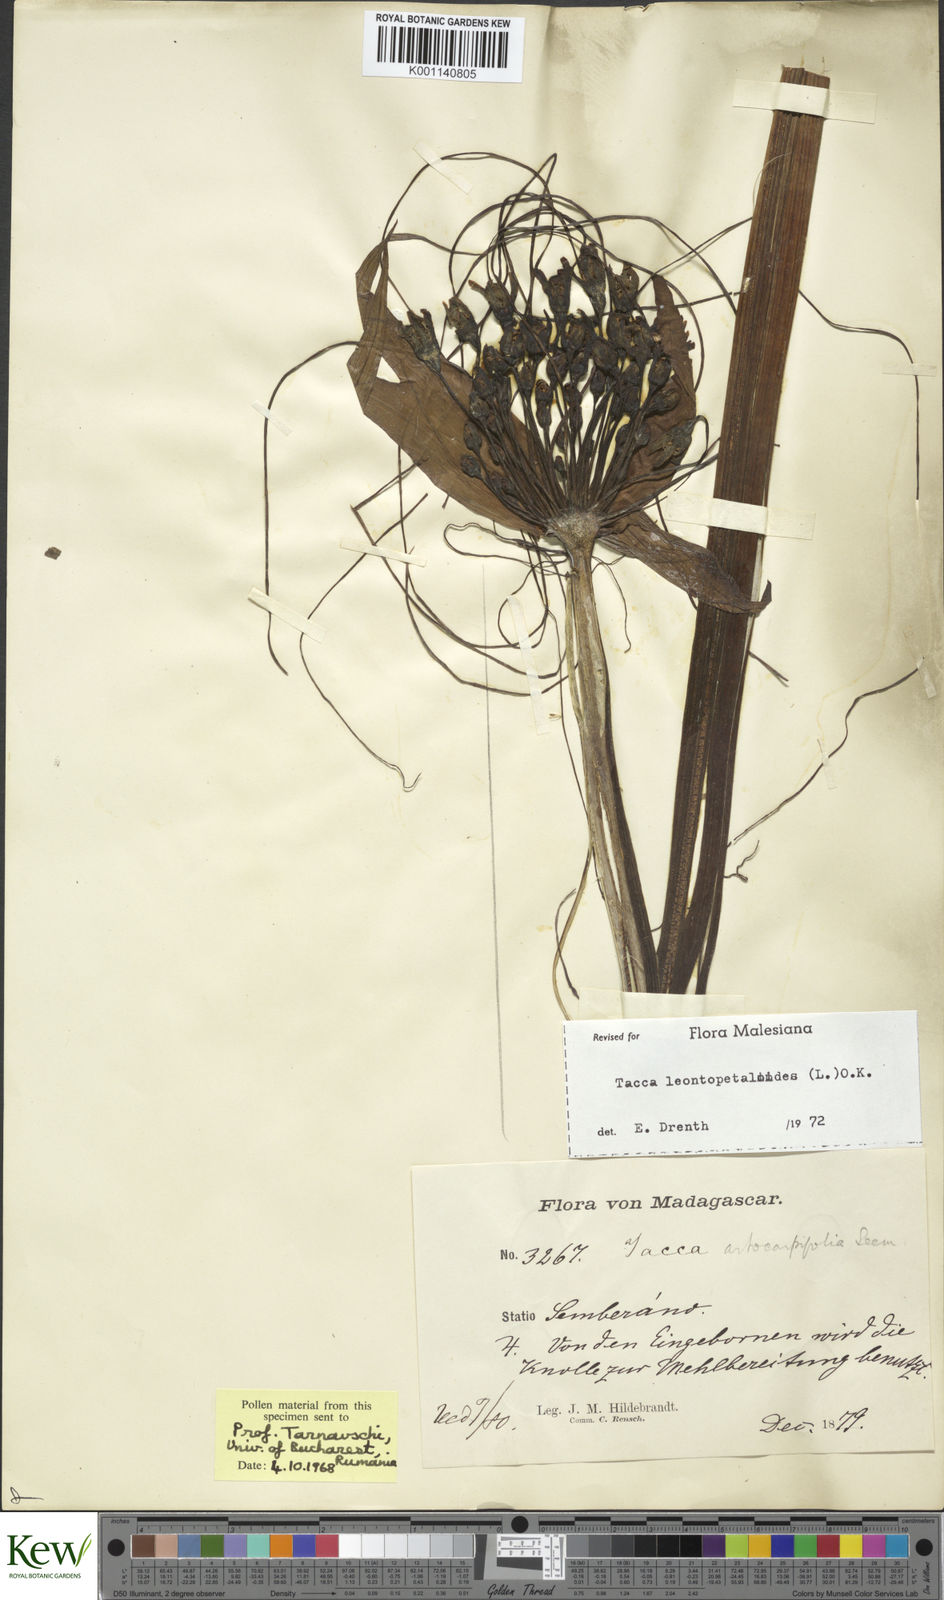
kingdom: Plantae
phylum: Tracheophyta
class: Liliopsida
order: Dioscoreales
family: Dioscoreaceae
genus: Tacca
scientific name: Tacca leontopetaloides
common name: Arrowroot
